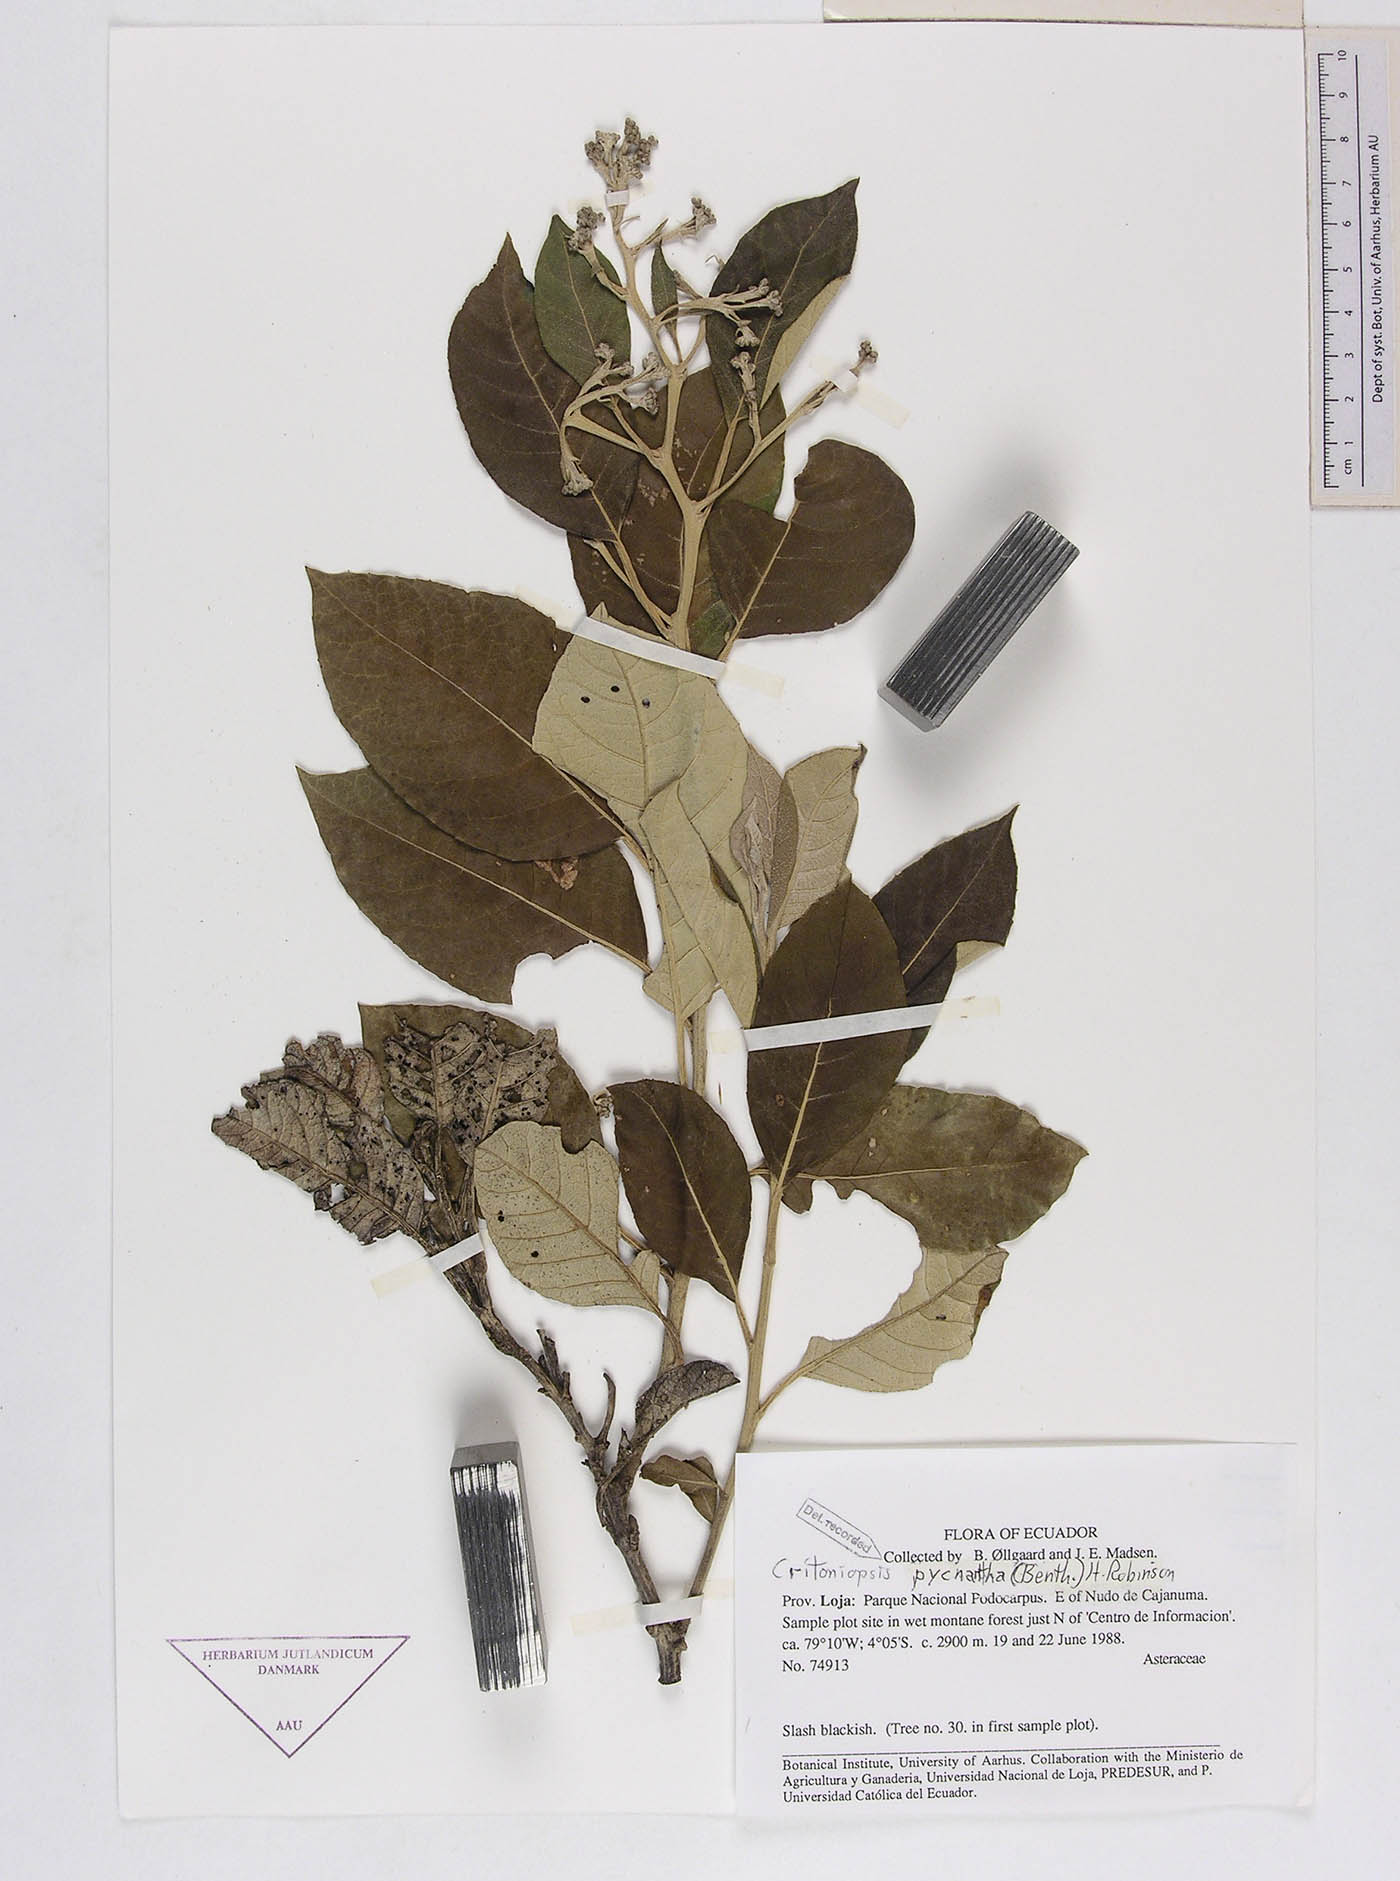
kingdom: Plantae
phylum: Tracheophyta
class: Magnoliopsida
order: Asterales
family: Asteraceae
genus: Critoniopsis
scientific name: Critoniopsis pycnantha
